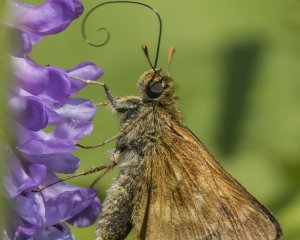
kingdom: Animalia
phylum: Arthropoda
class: Insecta
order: Lepidoptera
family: Hesperiidae
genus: Polites
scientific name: Polites
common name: Long Dash Skipper
